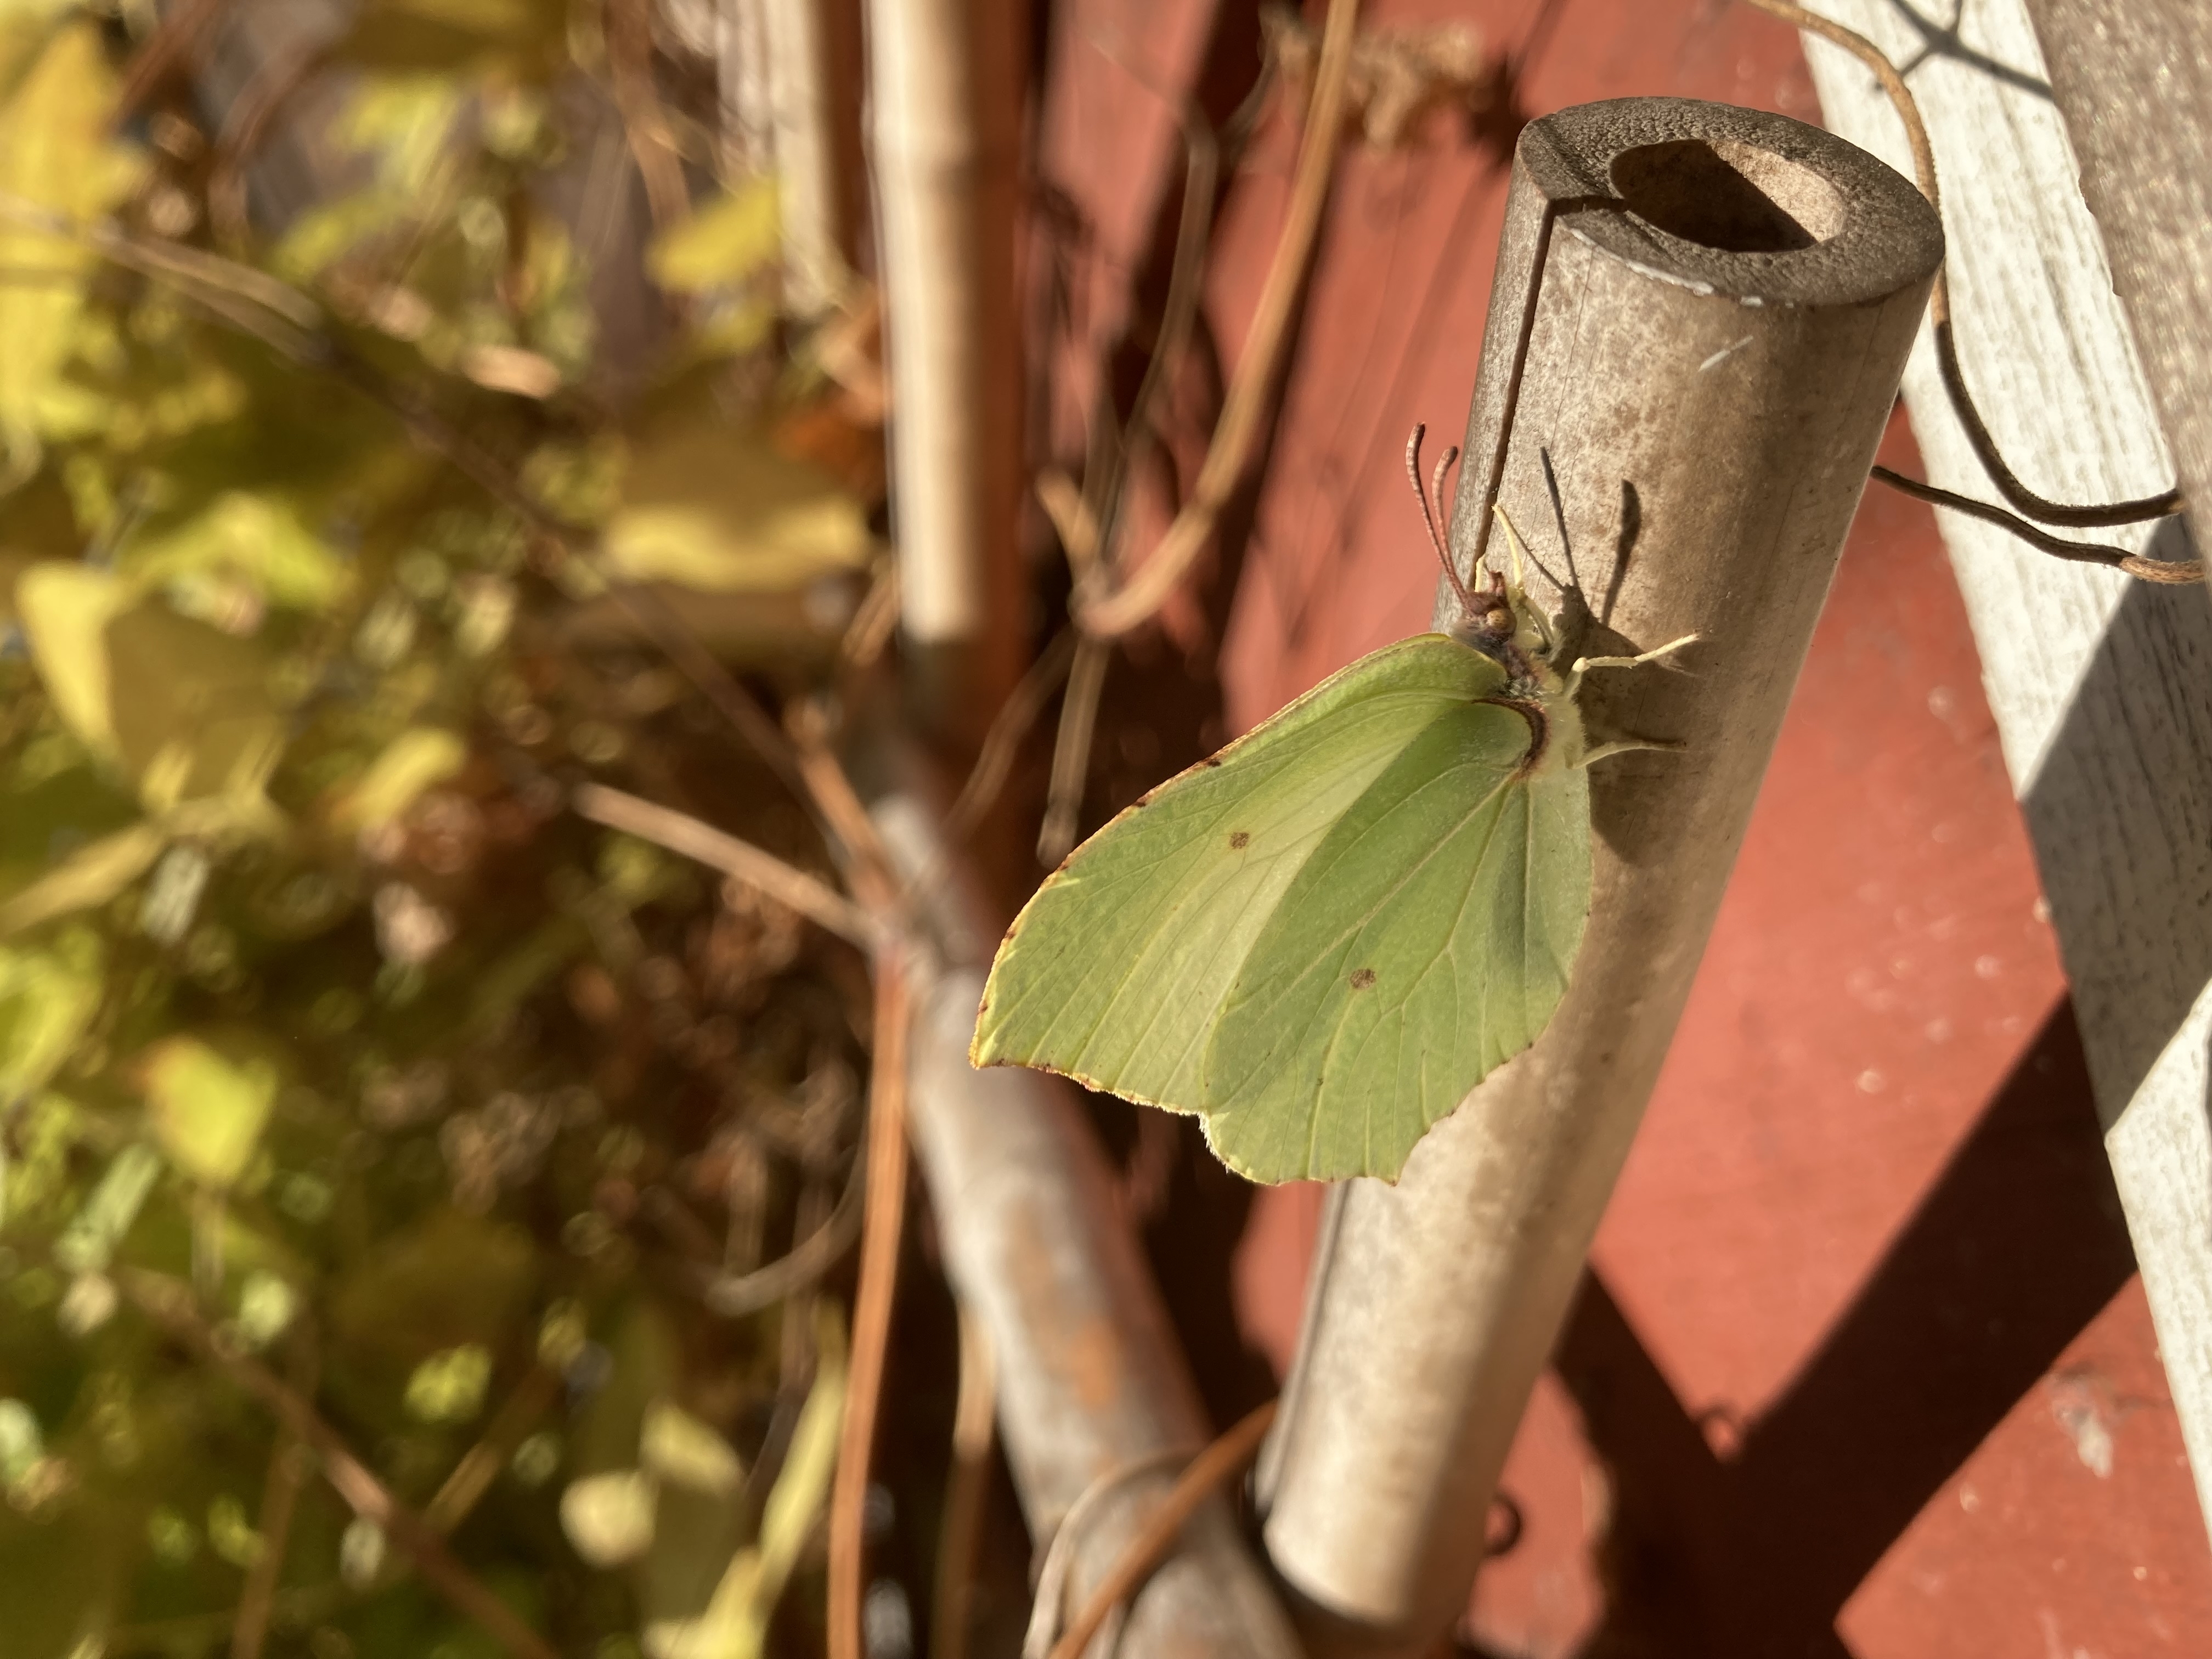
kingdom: Animalia
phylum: Arthropoda
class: Insecta
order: Lepidoptera
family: Pieridae
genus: Gonepteryx
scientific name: Gonepteryx rhamni
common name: Brimstone
